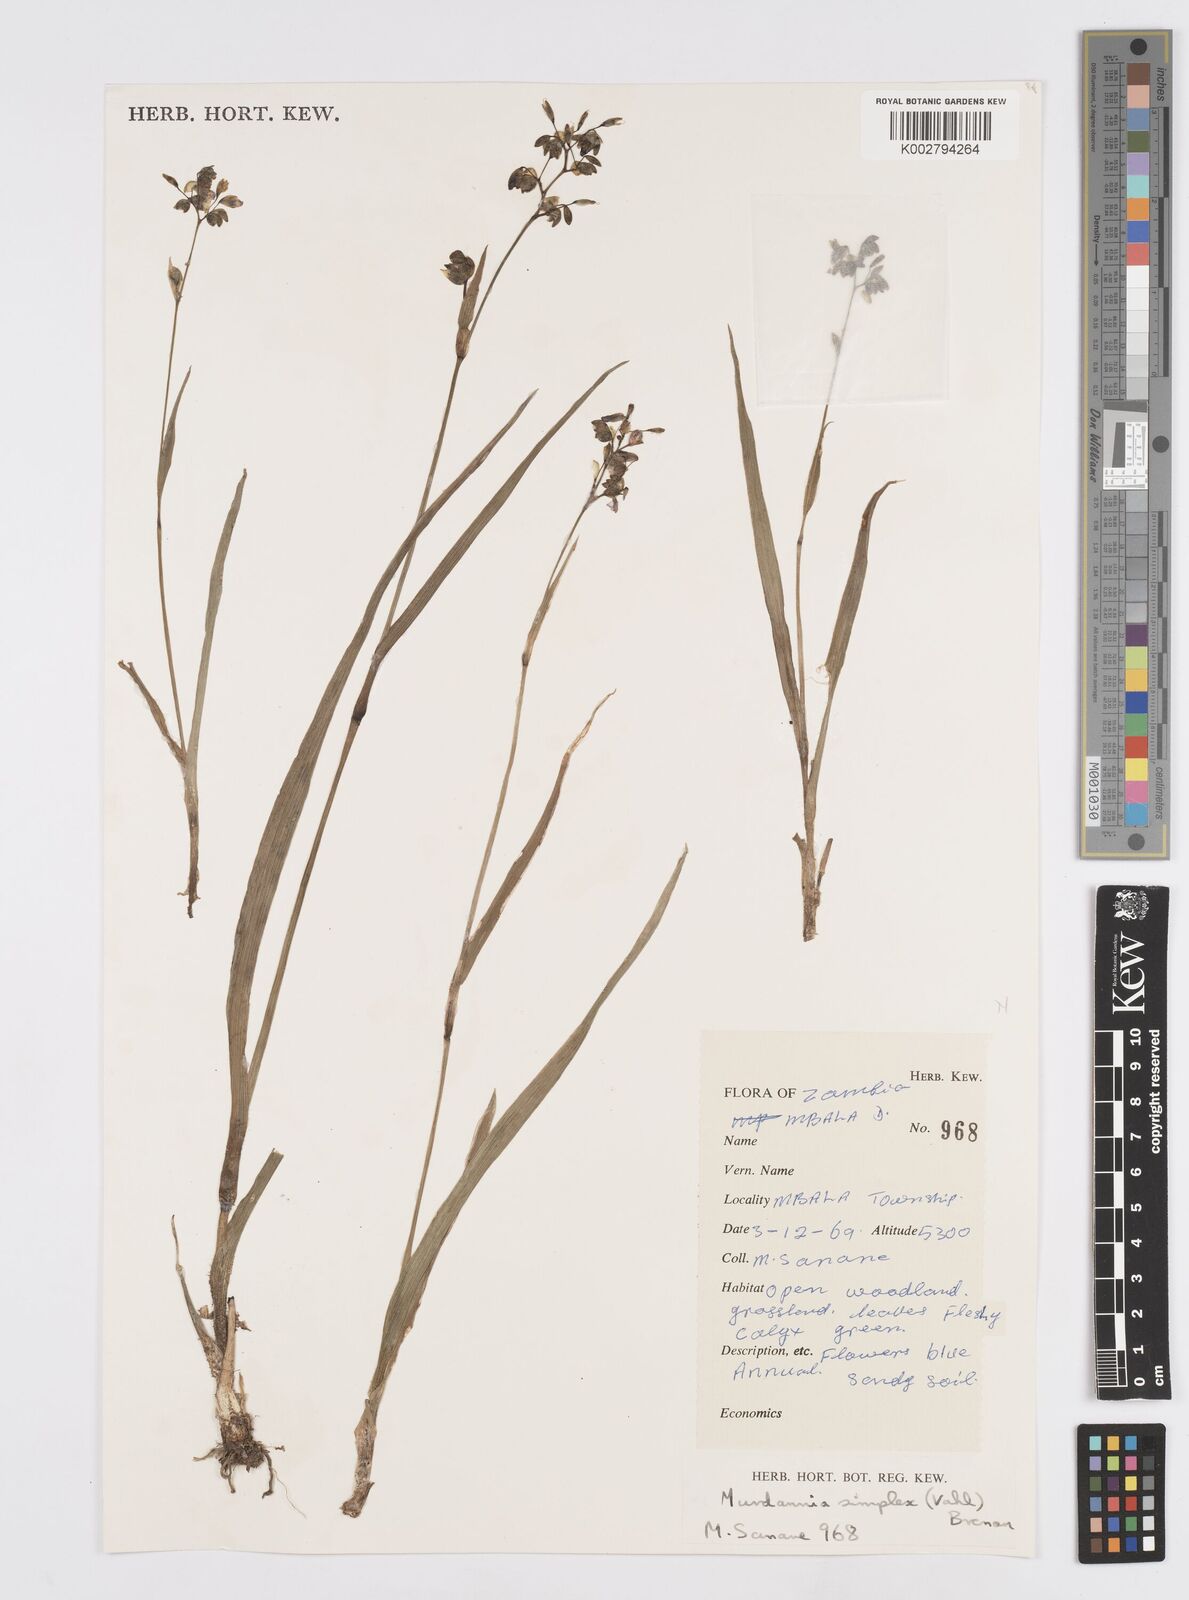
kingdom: Plantae
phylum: Tracheophyta
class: Liliopsida
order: Commelinales
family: Commelinaceae
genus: Murdannia
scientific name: Murdannia simplex
